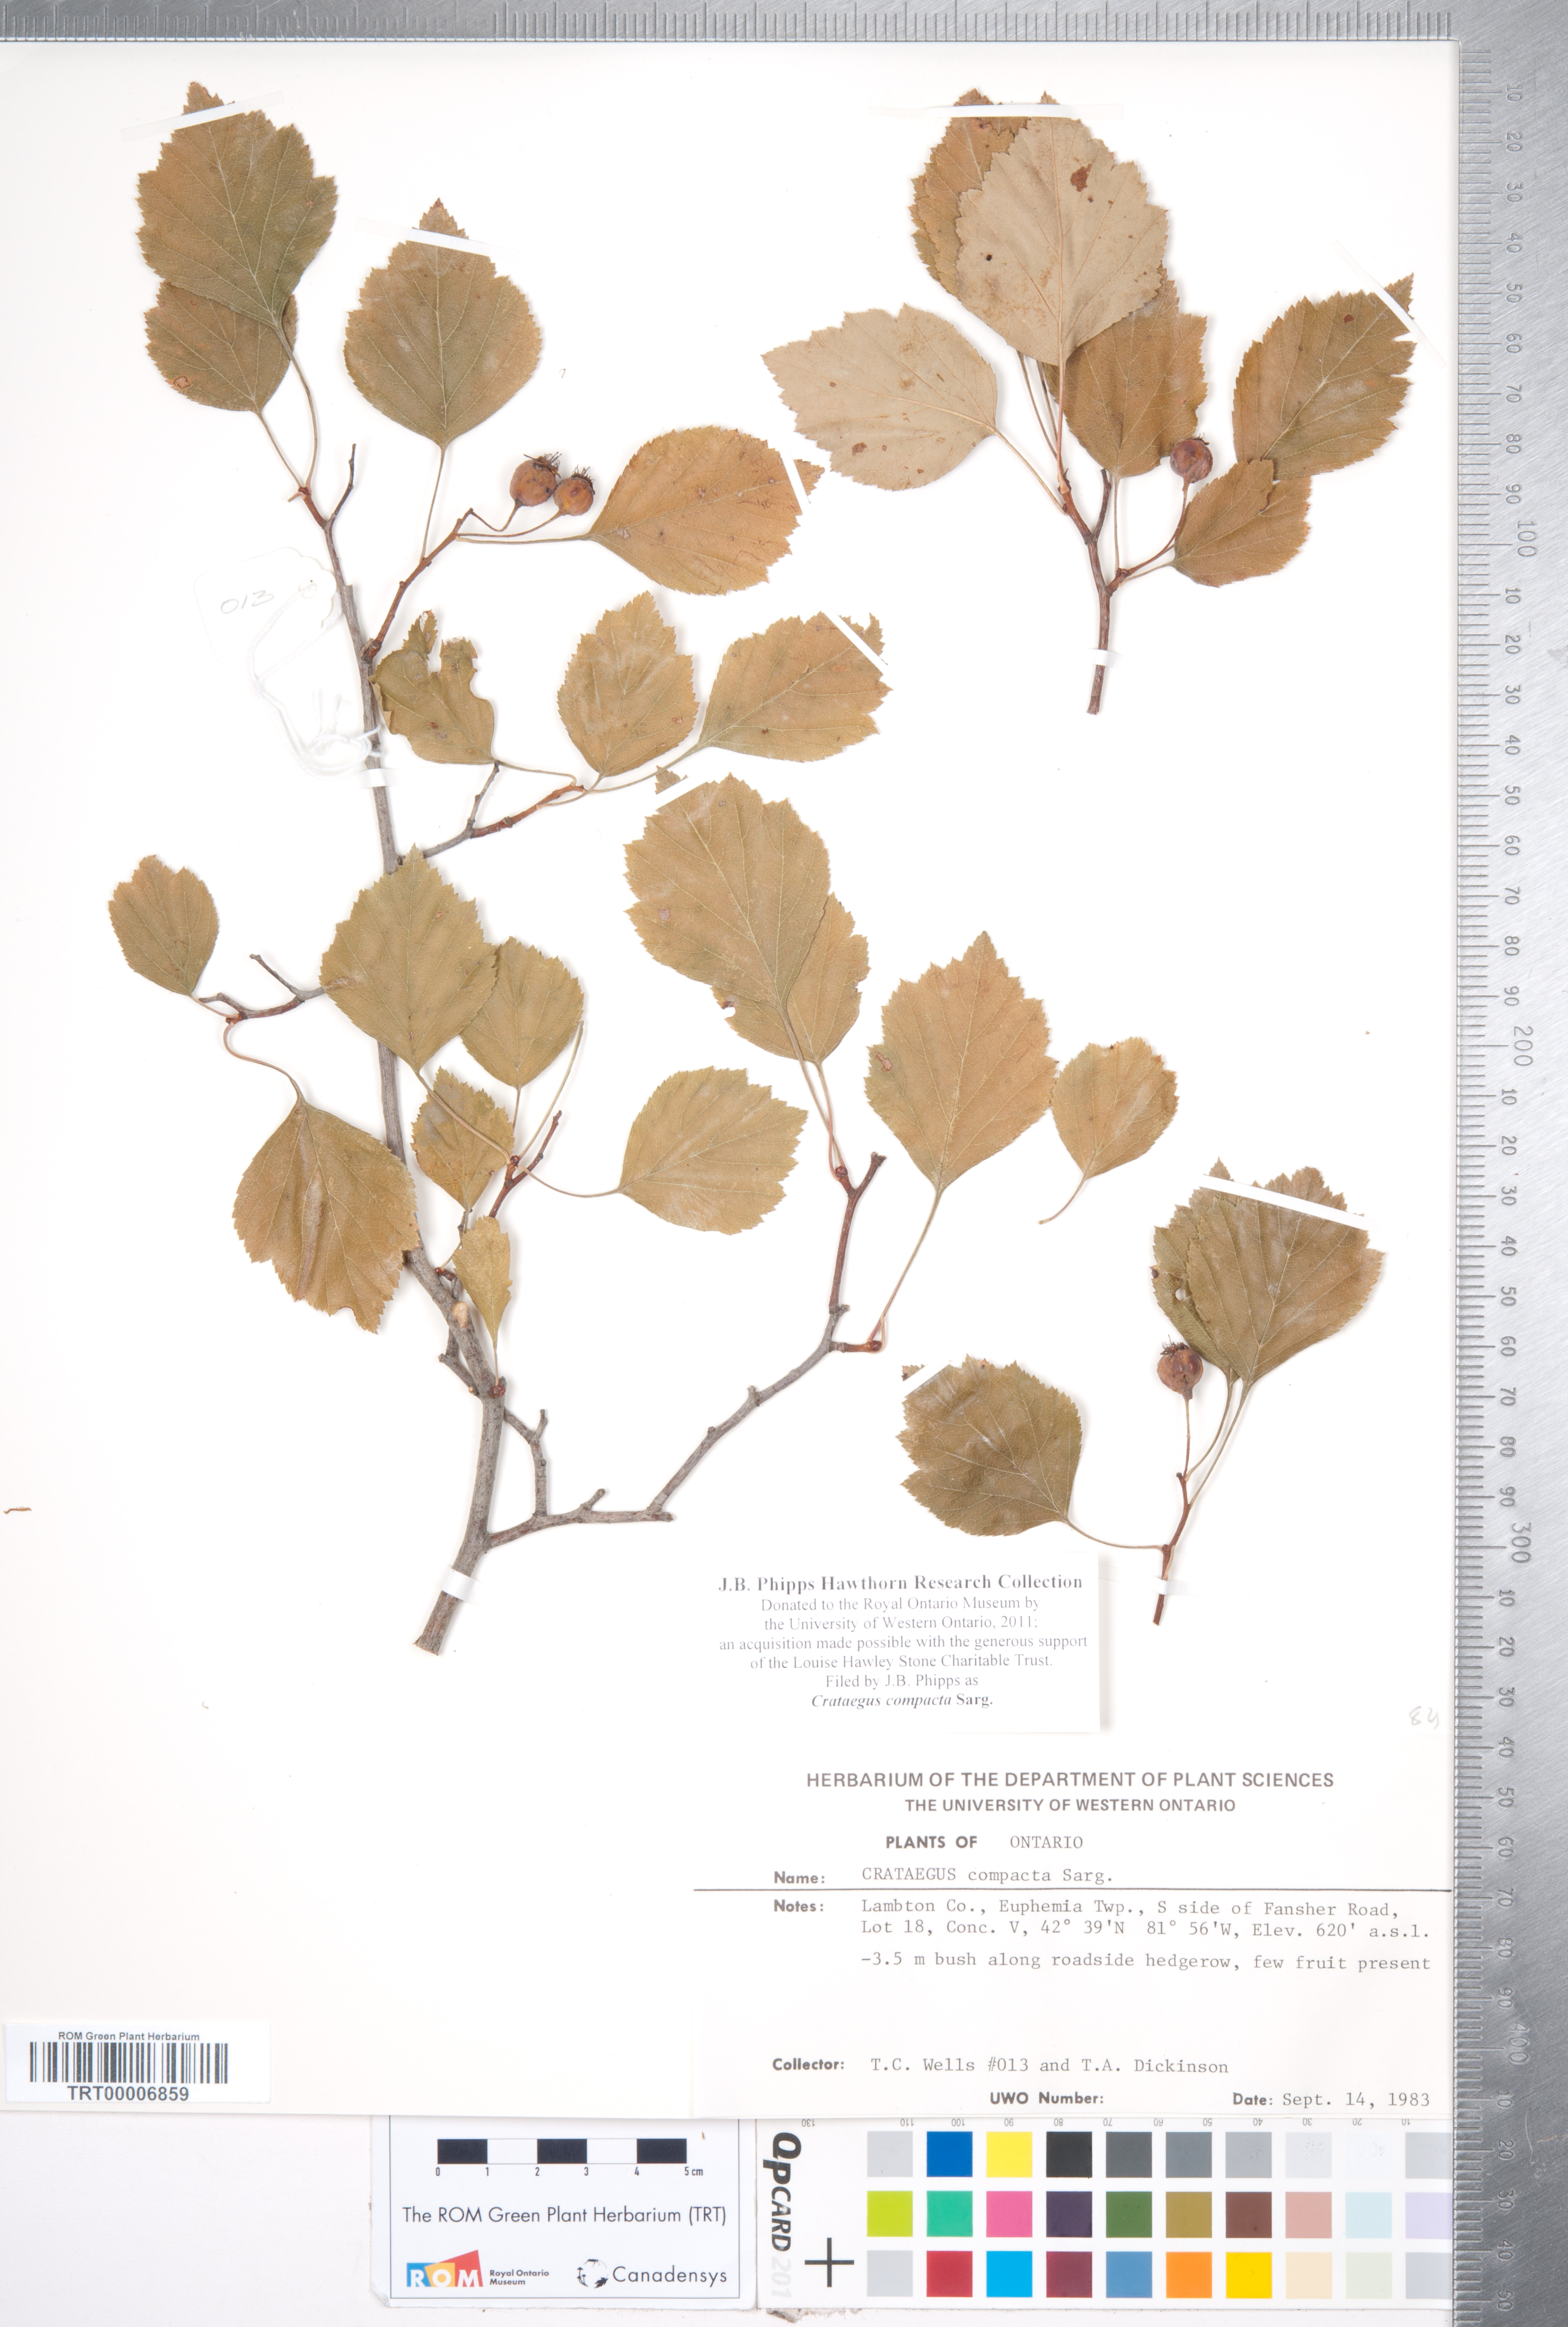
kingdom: Plantae
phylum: Tracheophyta
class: Magnoliopsida
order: Rosales
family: Rosaceae
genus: Crataegus
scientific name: Crataegus compacta
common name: Clustered hawthorn
